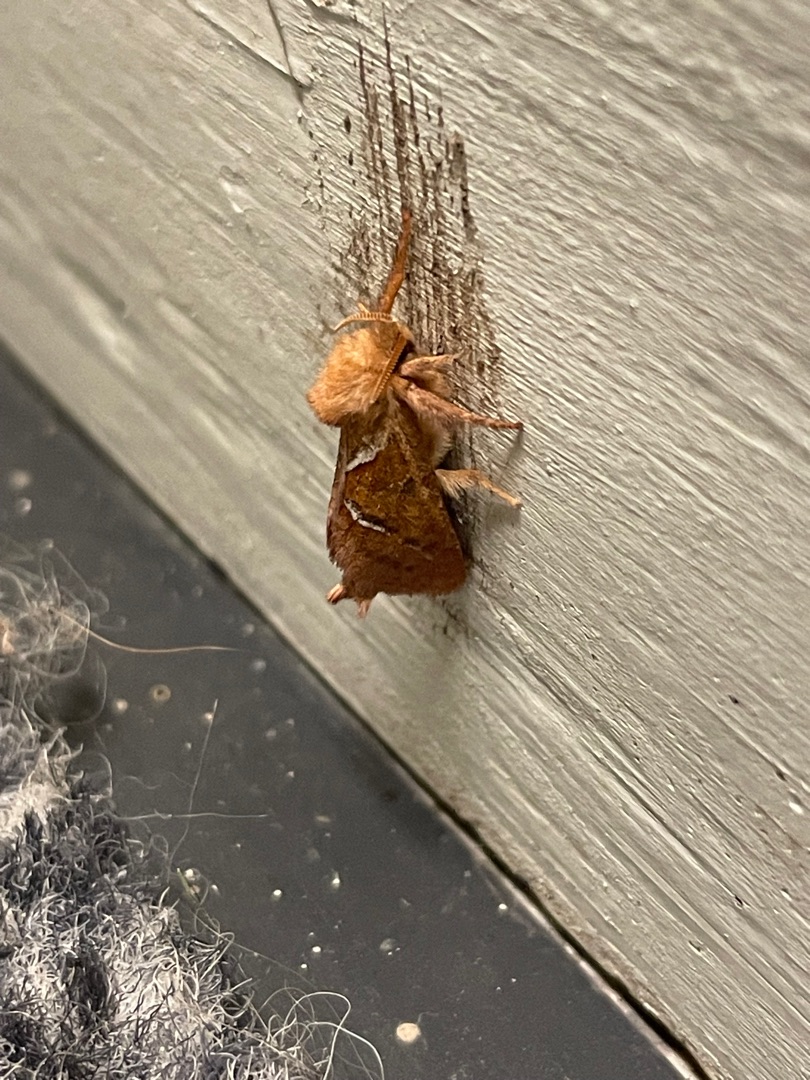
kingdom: Animalia
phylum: Arthropoda
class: Insecta
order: Lepidoptera
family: Hepialidae
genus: Triodia
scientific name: Triodia sylvina
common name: Skræpperodæder
